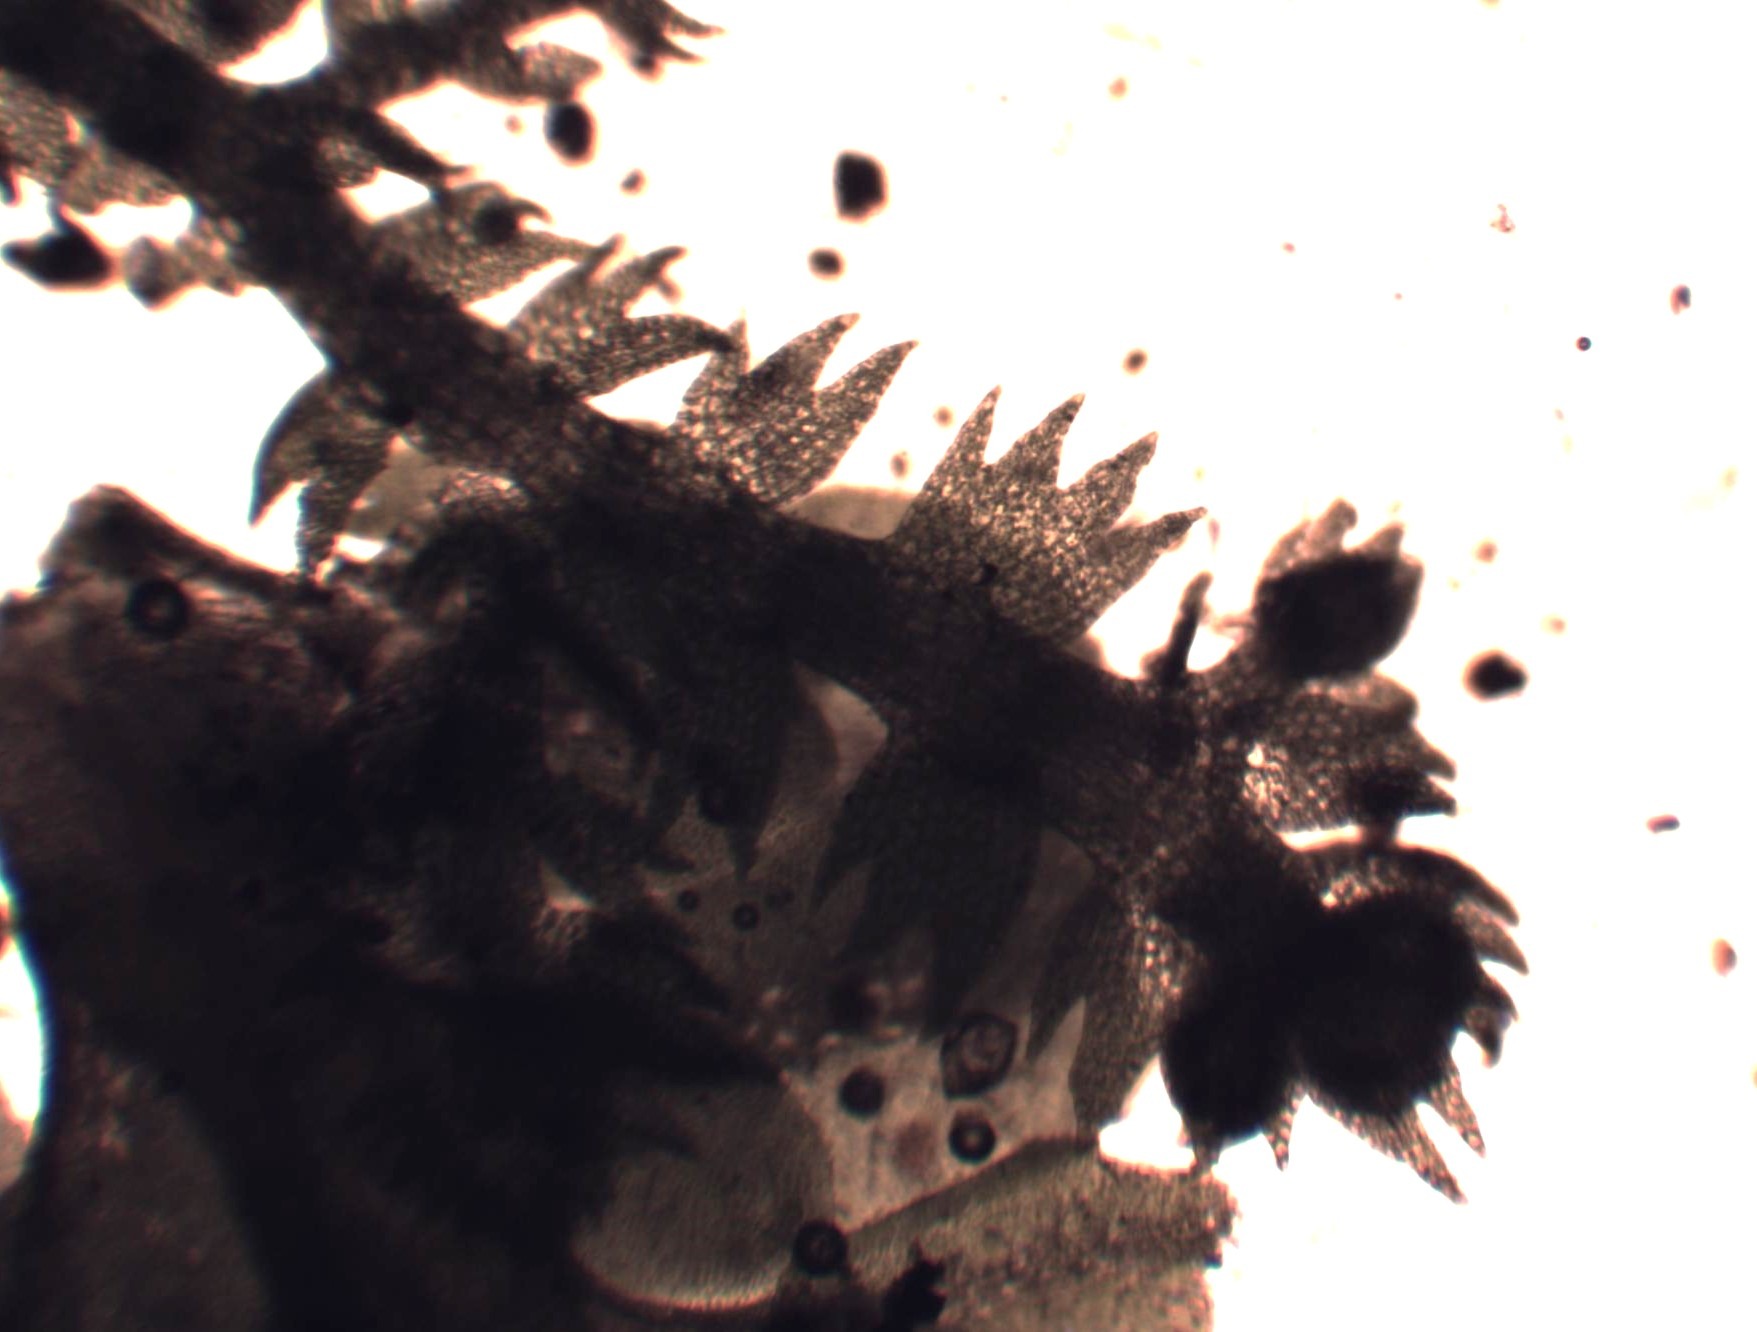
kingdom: Plantae
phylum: Marchantiophyta
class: Jungermanniopsida
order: Jungermanniales
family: Lepidoziaceae
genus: Lepidozia
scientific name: Lepidozia reptans
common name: Krybende fingermos
